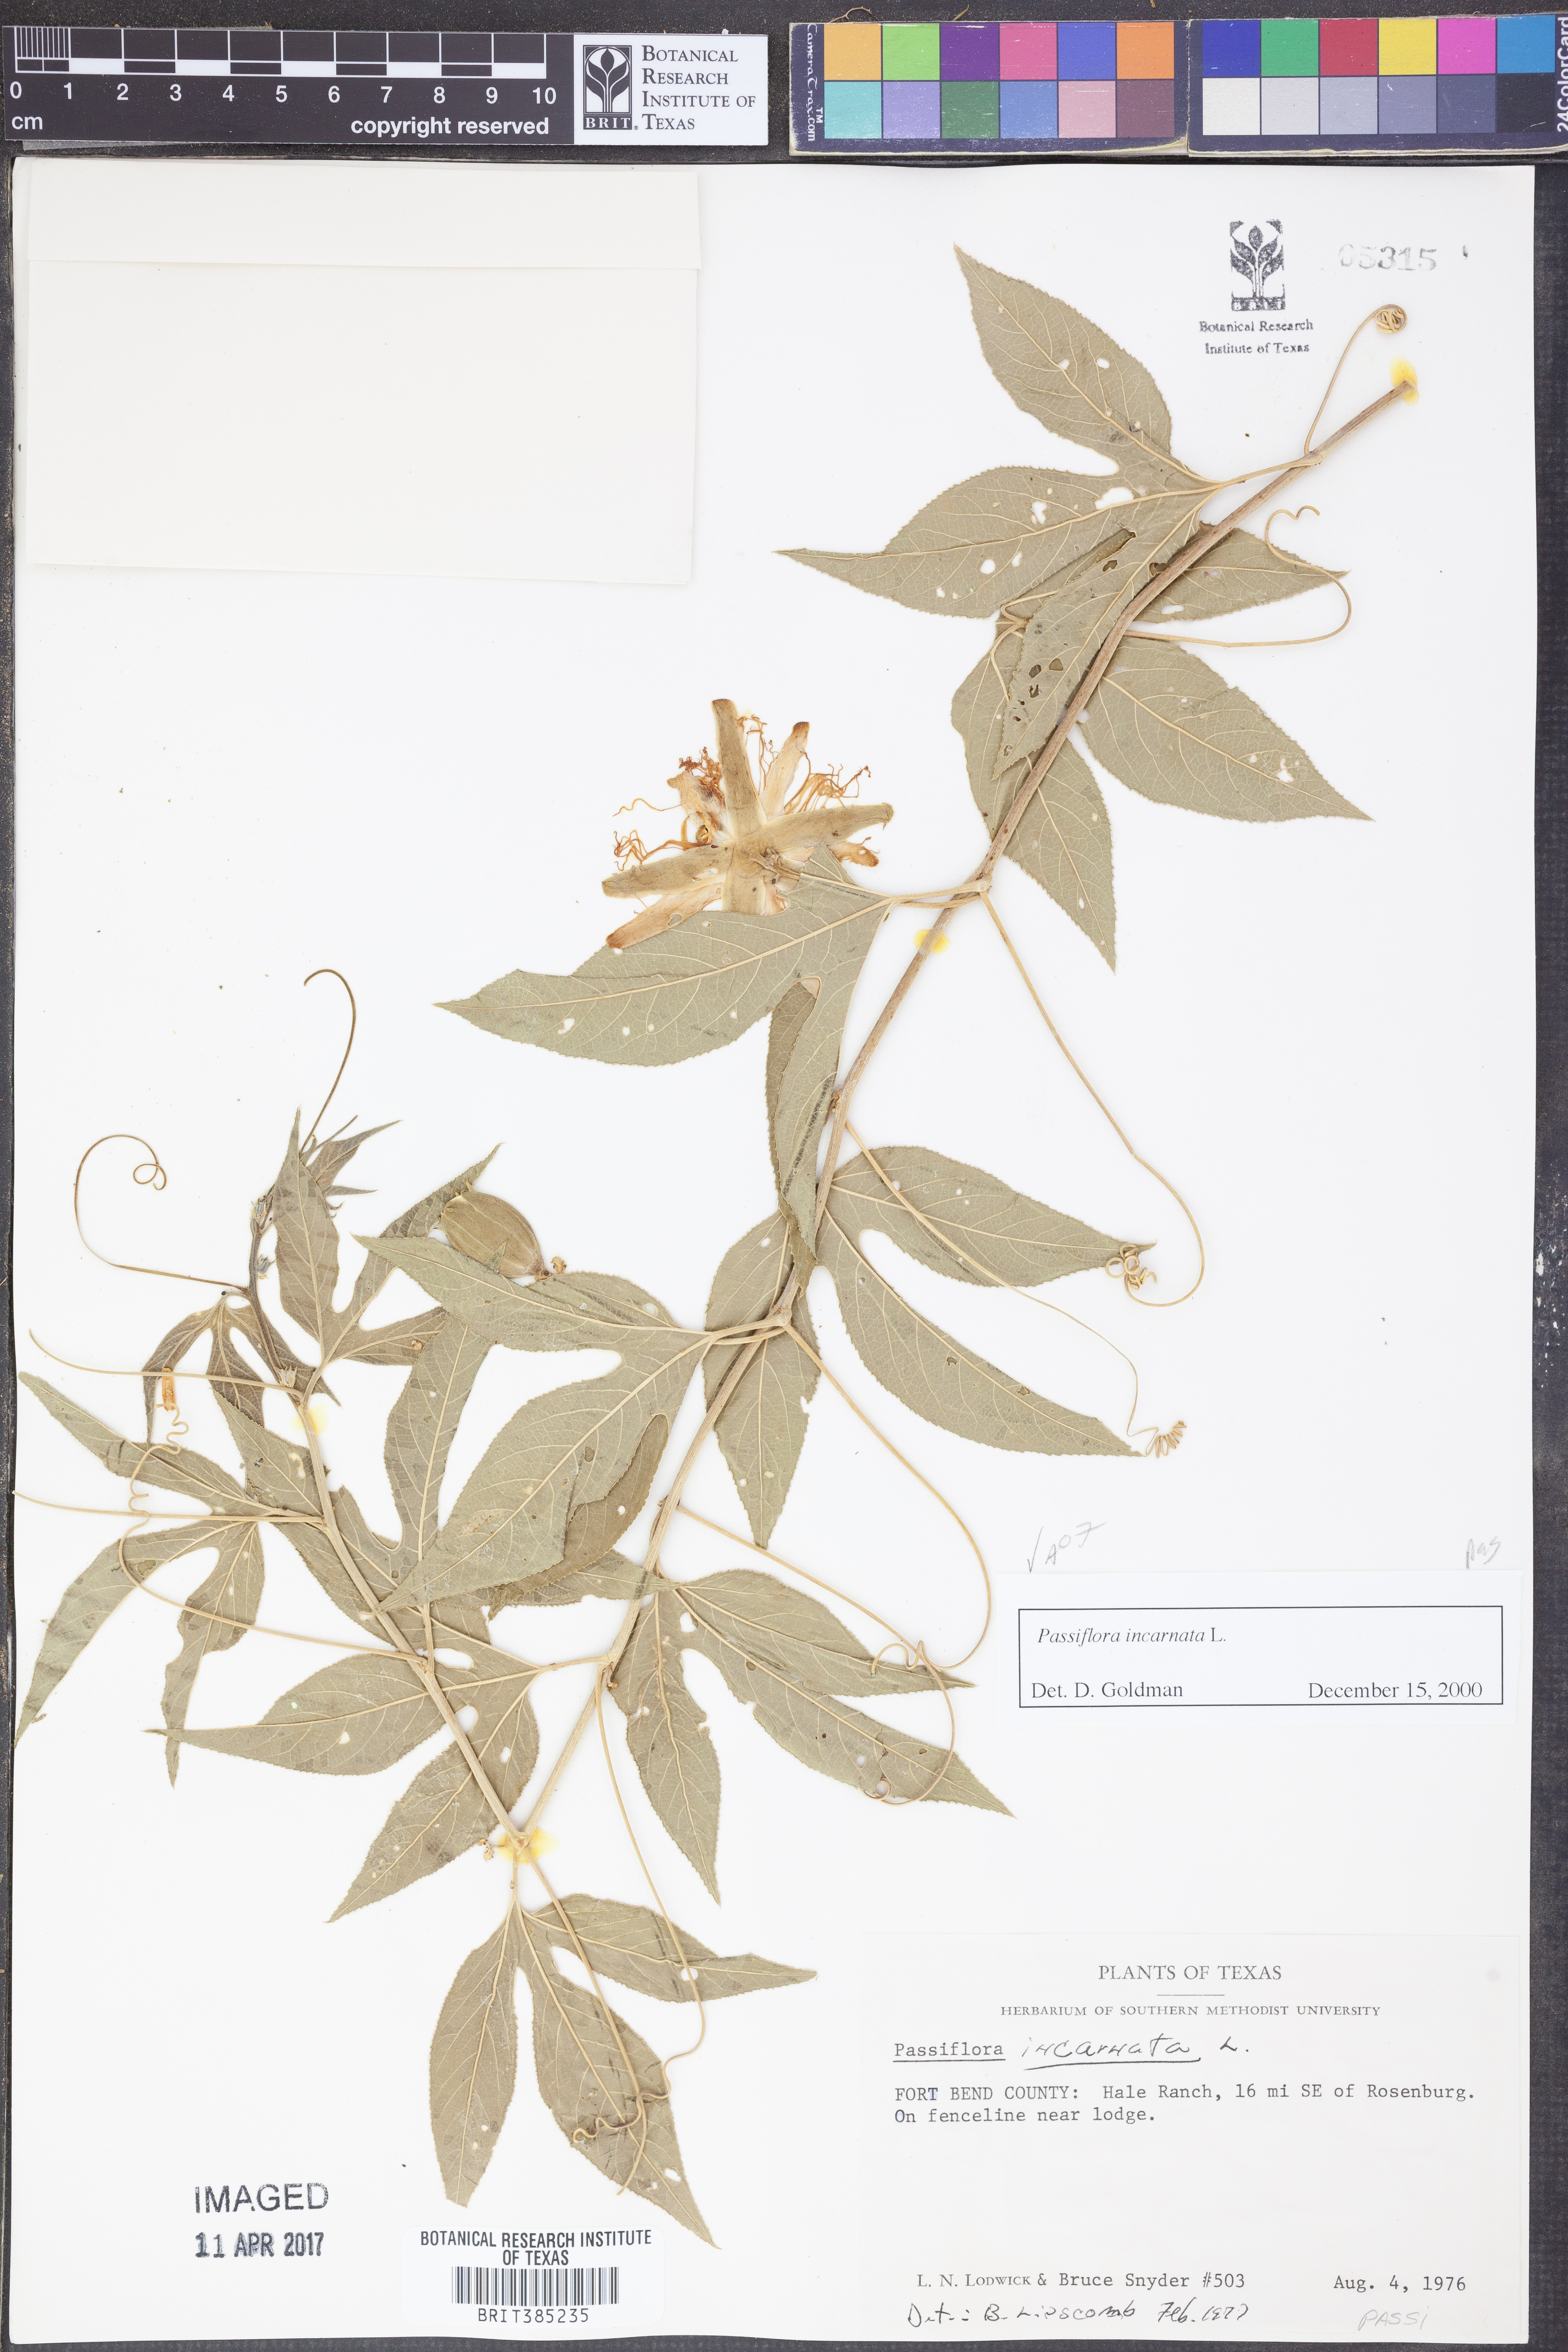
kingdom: Plantae
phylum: Tracheophyta
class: Magnoliopsida
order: Malpighiales
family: Passifloraceae
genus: Passiflora
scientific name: Passiflora incarnata
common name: Apricot-vine
